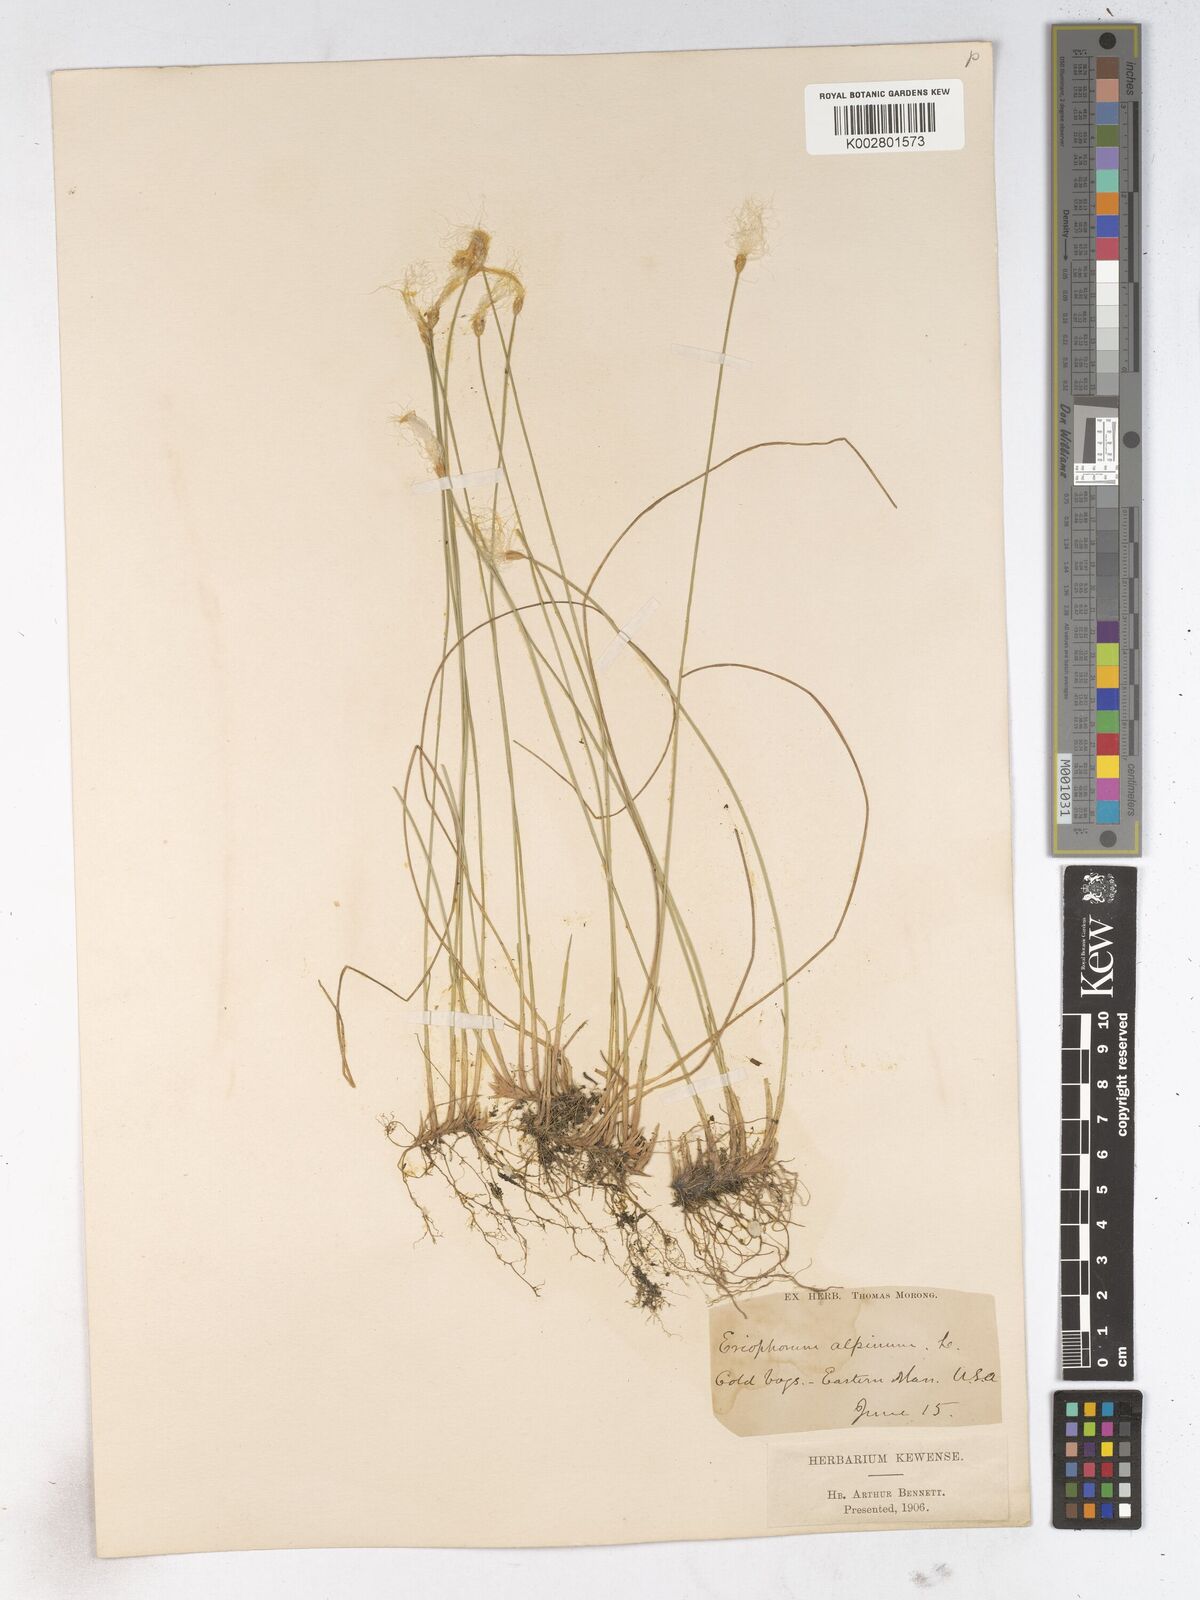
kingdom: Plantae
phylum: Tracheophyta
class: Liliopsida
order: Poales
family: Cyperaceae
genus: Trichophorum
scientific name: Trichophorum alpinum
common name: Alpine bulrush
